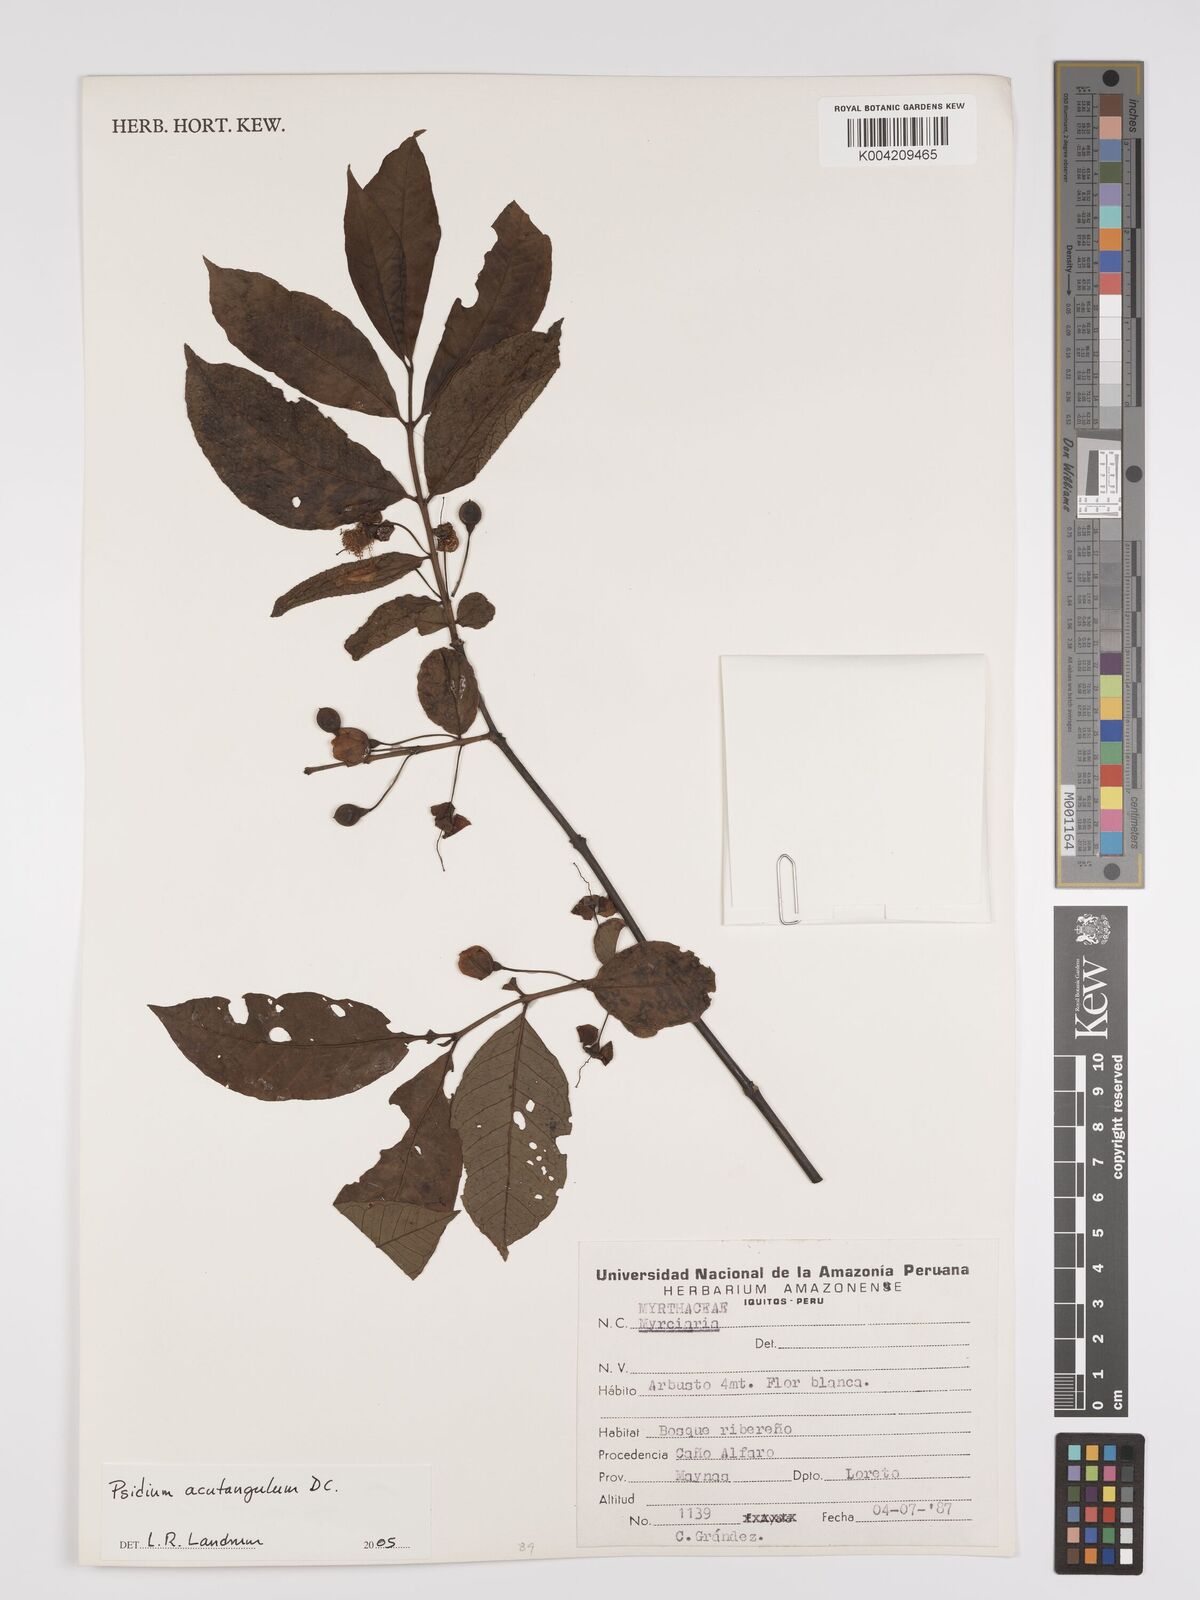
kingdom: Plantae
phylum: Tracheophyta
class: Magnoliopsida
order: Myrtales
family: Myrtaceae
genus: Psidium
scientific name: Psidium acutangulum
